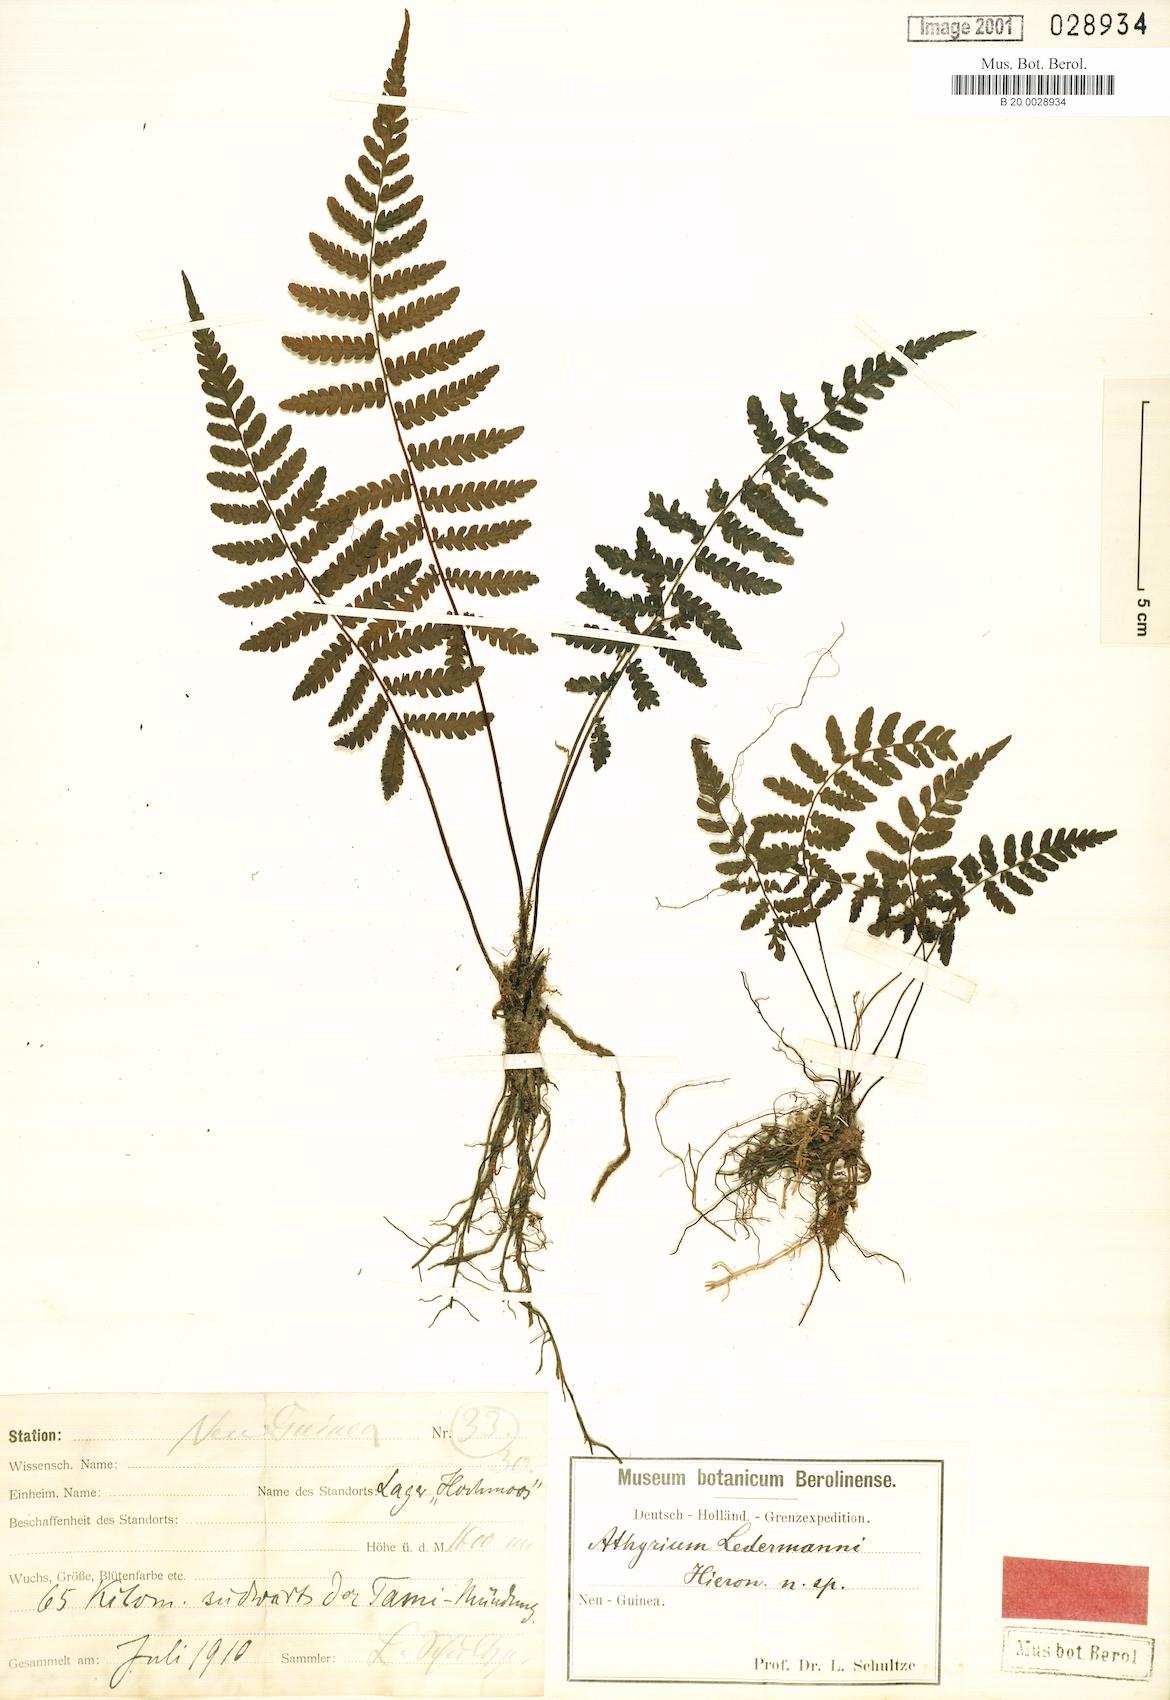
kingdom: Plantae
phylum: Tracheophyta
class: Polypodiopsida
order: Polypodiales
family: Thelypteridaceae
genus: Coryphopteris
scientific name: Coryphopteris ledermannii
